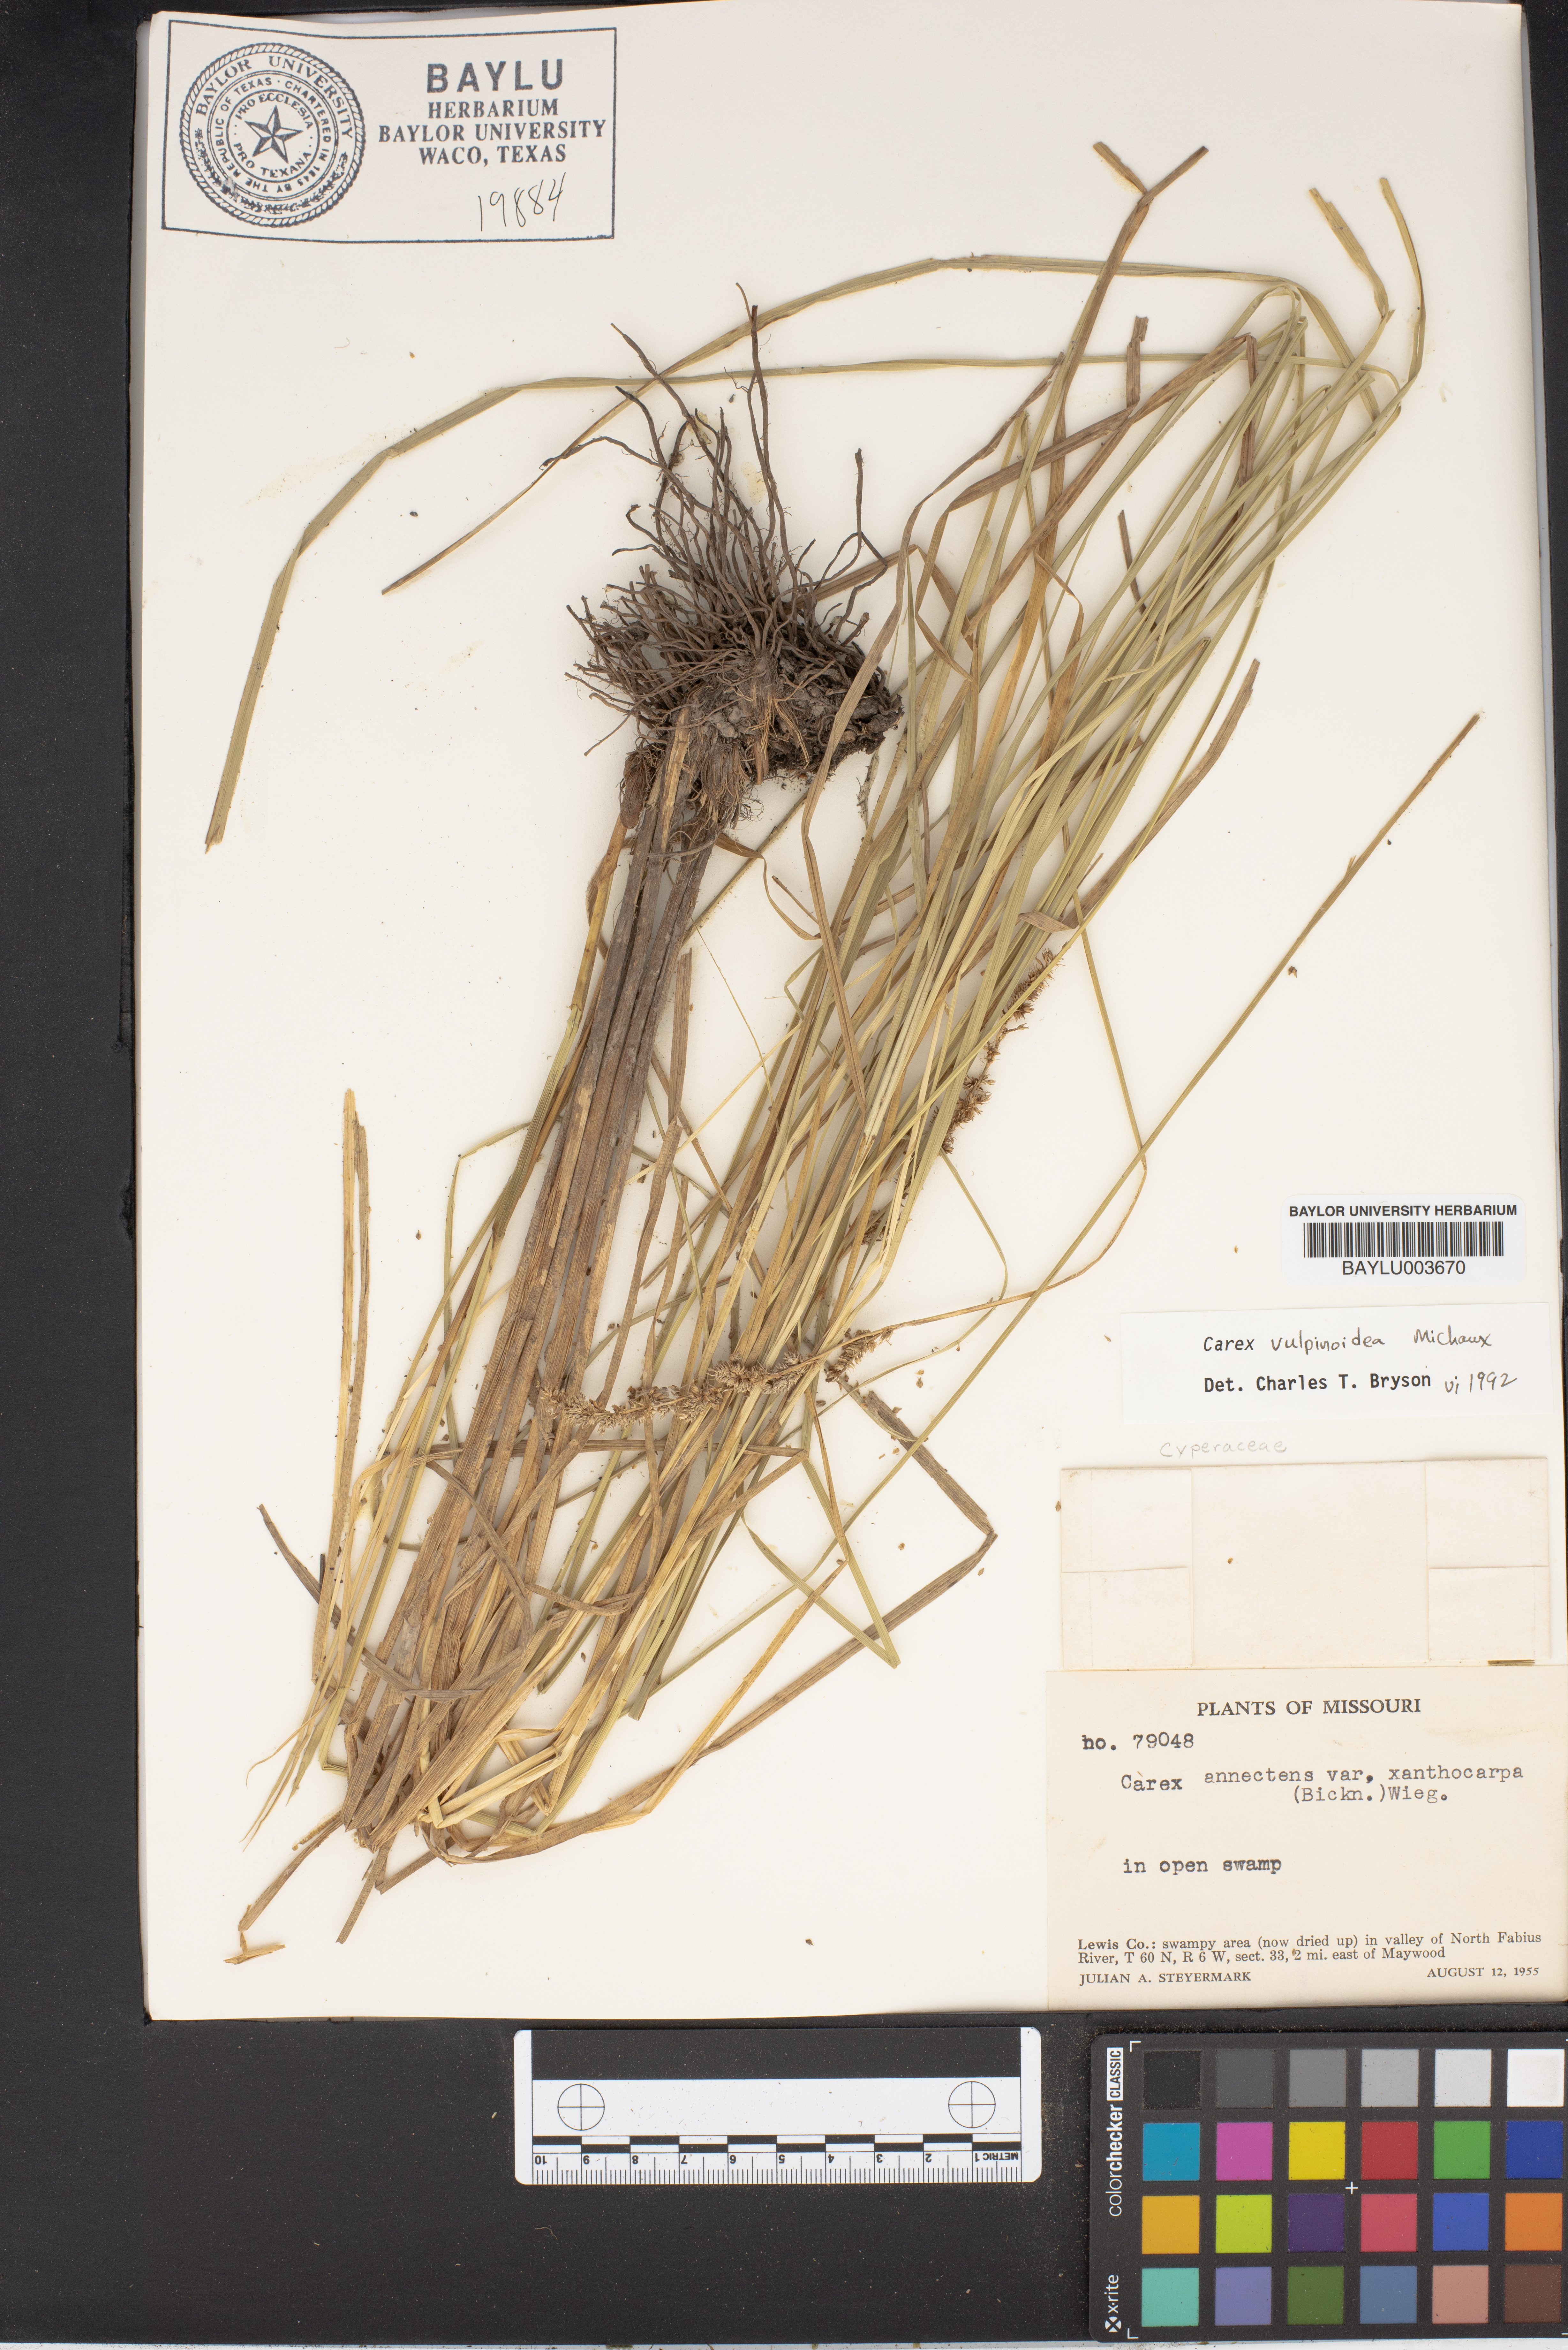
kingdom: Plantae
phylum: Tracheophyta
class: Liliopsida
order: Poales
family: Cyperaceae
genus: Carex
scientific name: Carex annectens
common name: Large fox sedge
